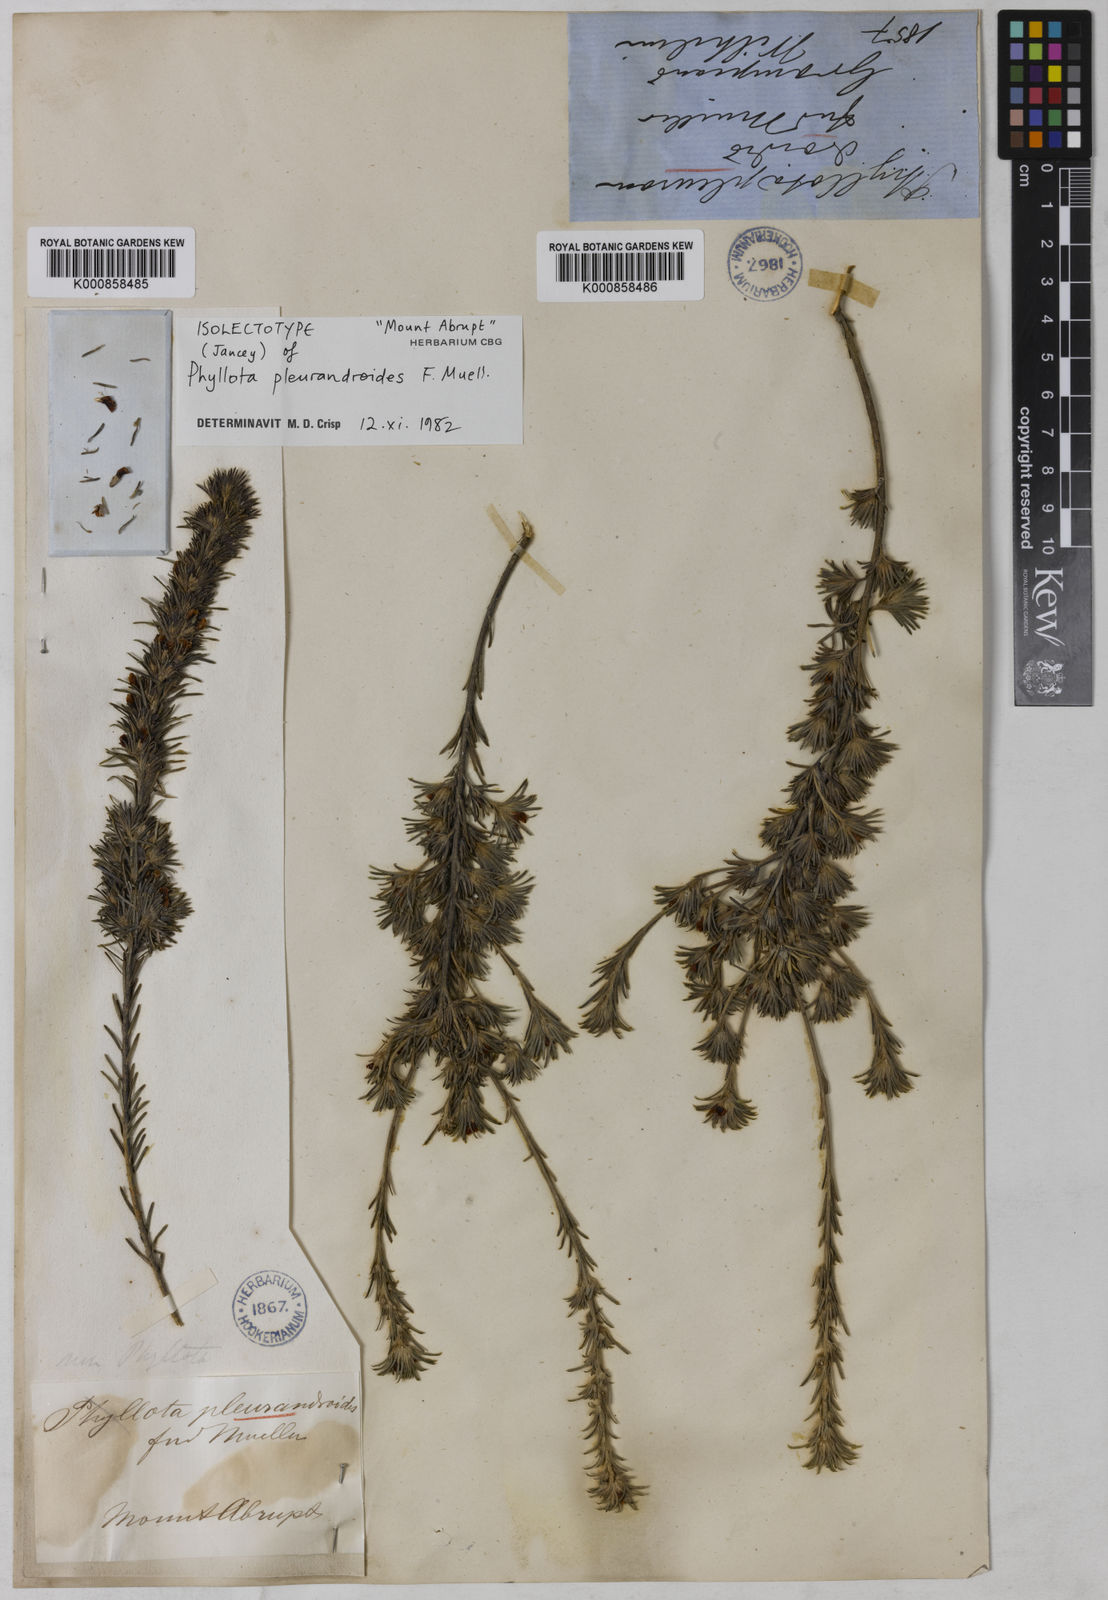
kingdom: Plantae
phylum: Tracheophyta
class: Magnoliopsida
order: Fabales
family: Fabaceae
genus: Phyllota
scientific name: Phyllota pleurandroides
